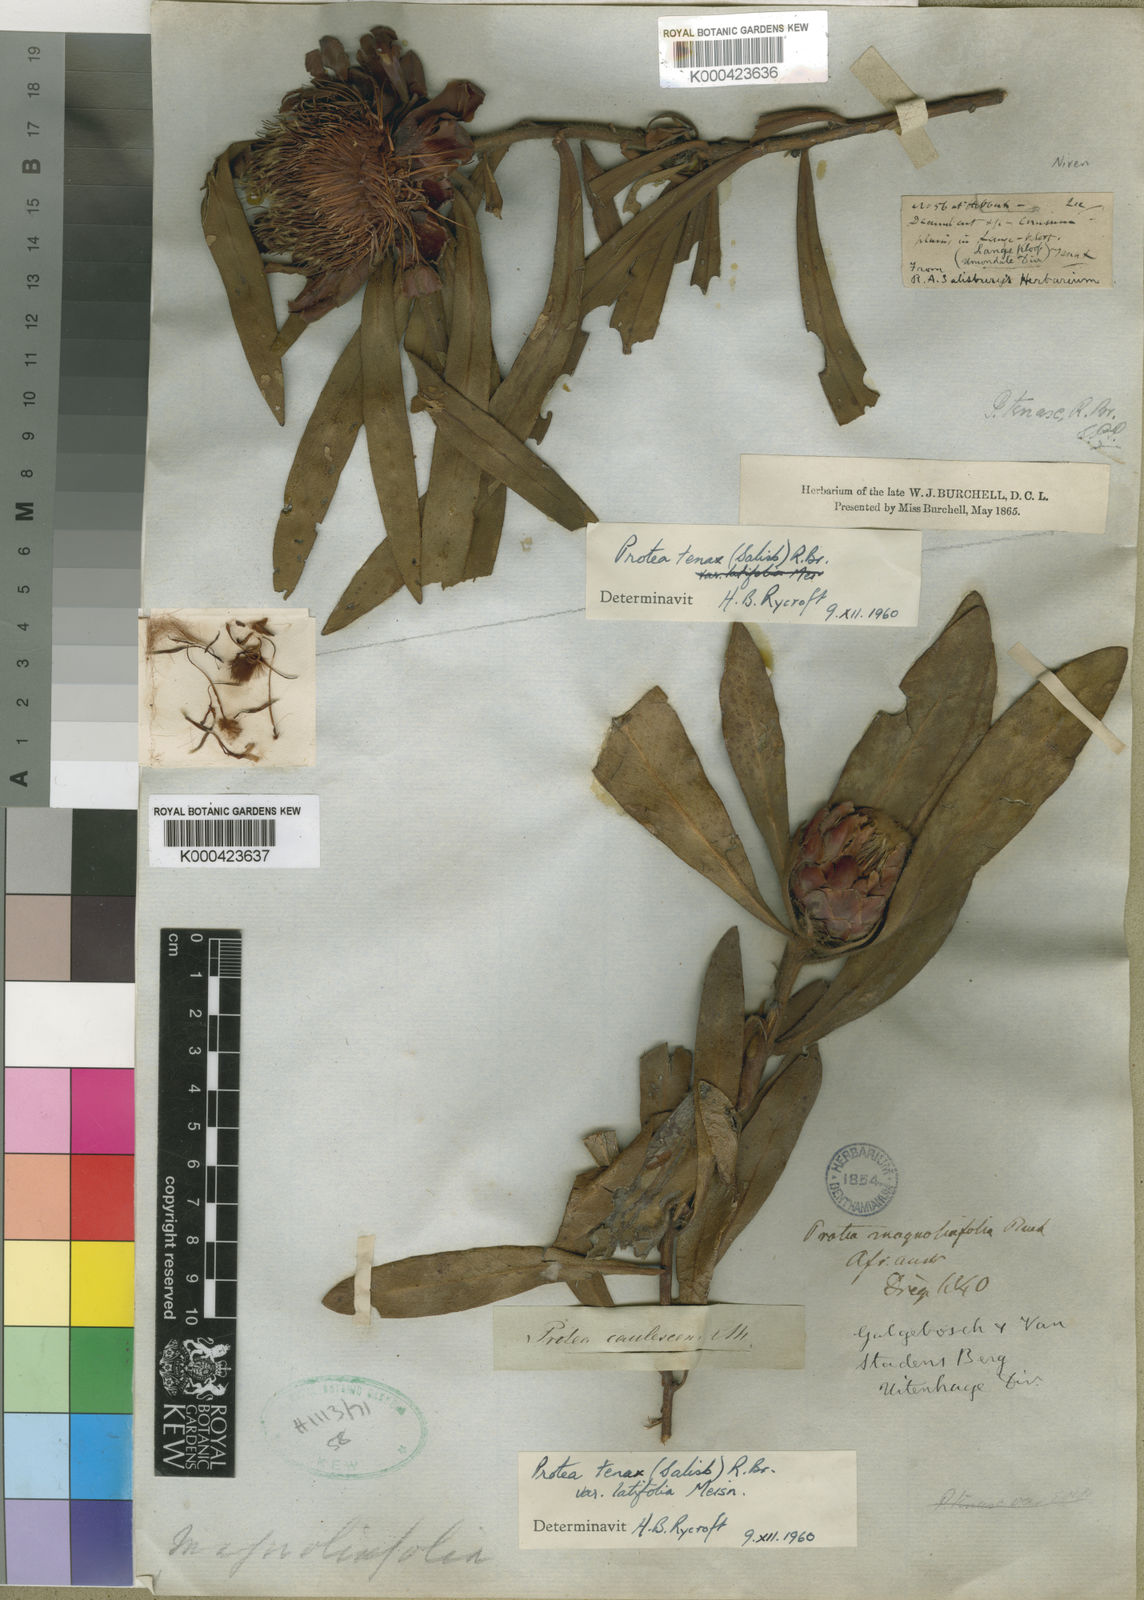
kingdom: Plantae
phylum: Tracheophyta
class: Magnoliopsida
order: Proteales
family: Proteaceae
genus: Protea
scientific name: Protea tenax
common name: Tenacious sugarbush
